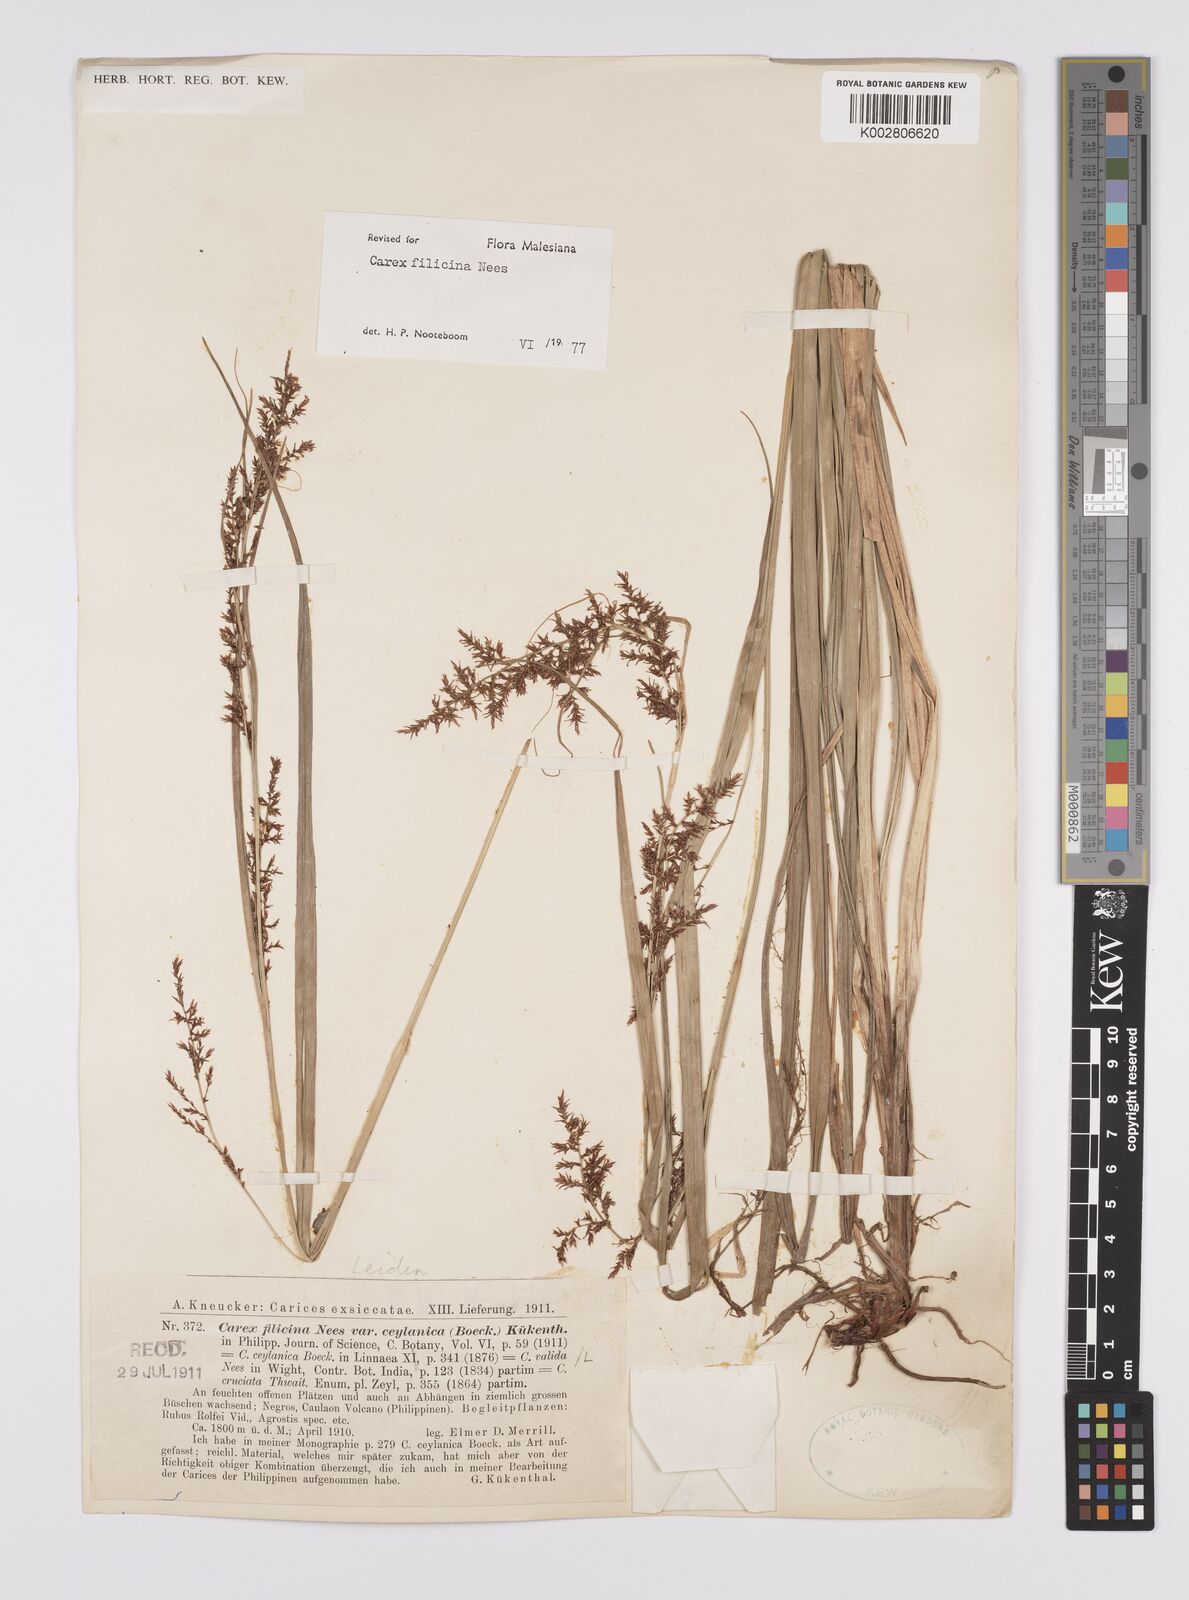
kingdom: Plantae
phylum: Tracheophyta
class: Liliopsida
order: Poales
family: Cyperaceae
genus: Carex
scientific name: Carex filicina
